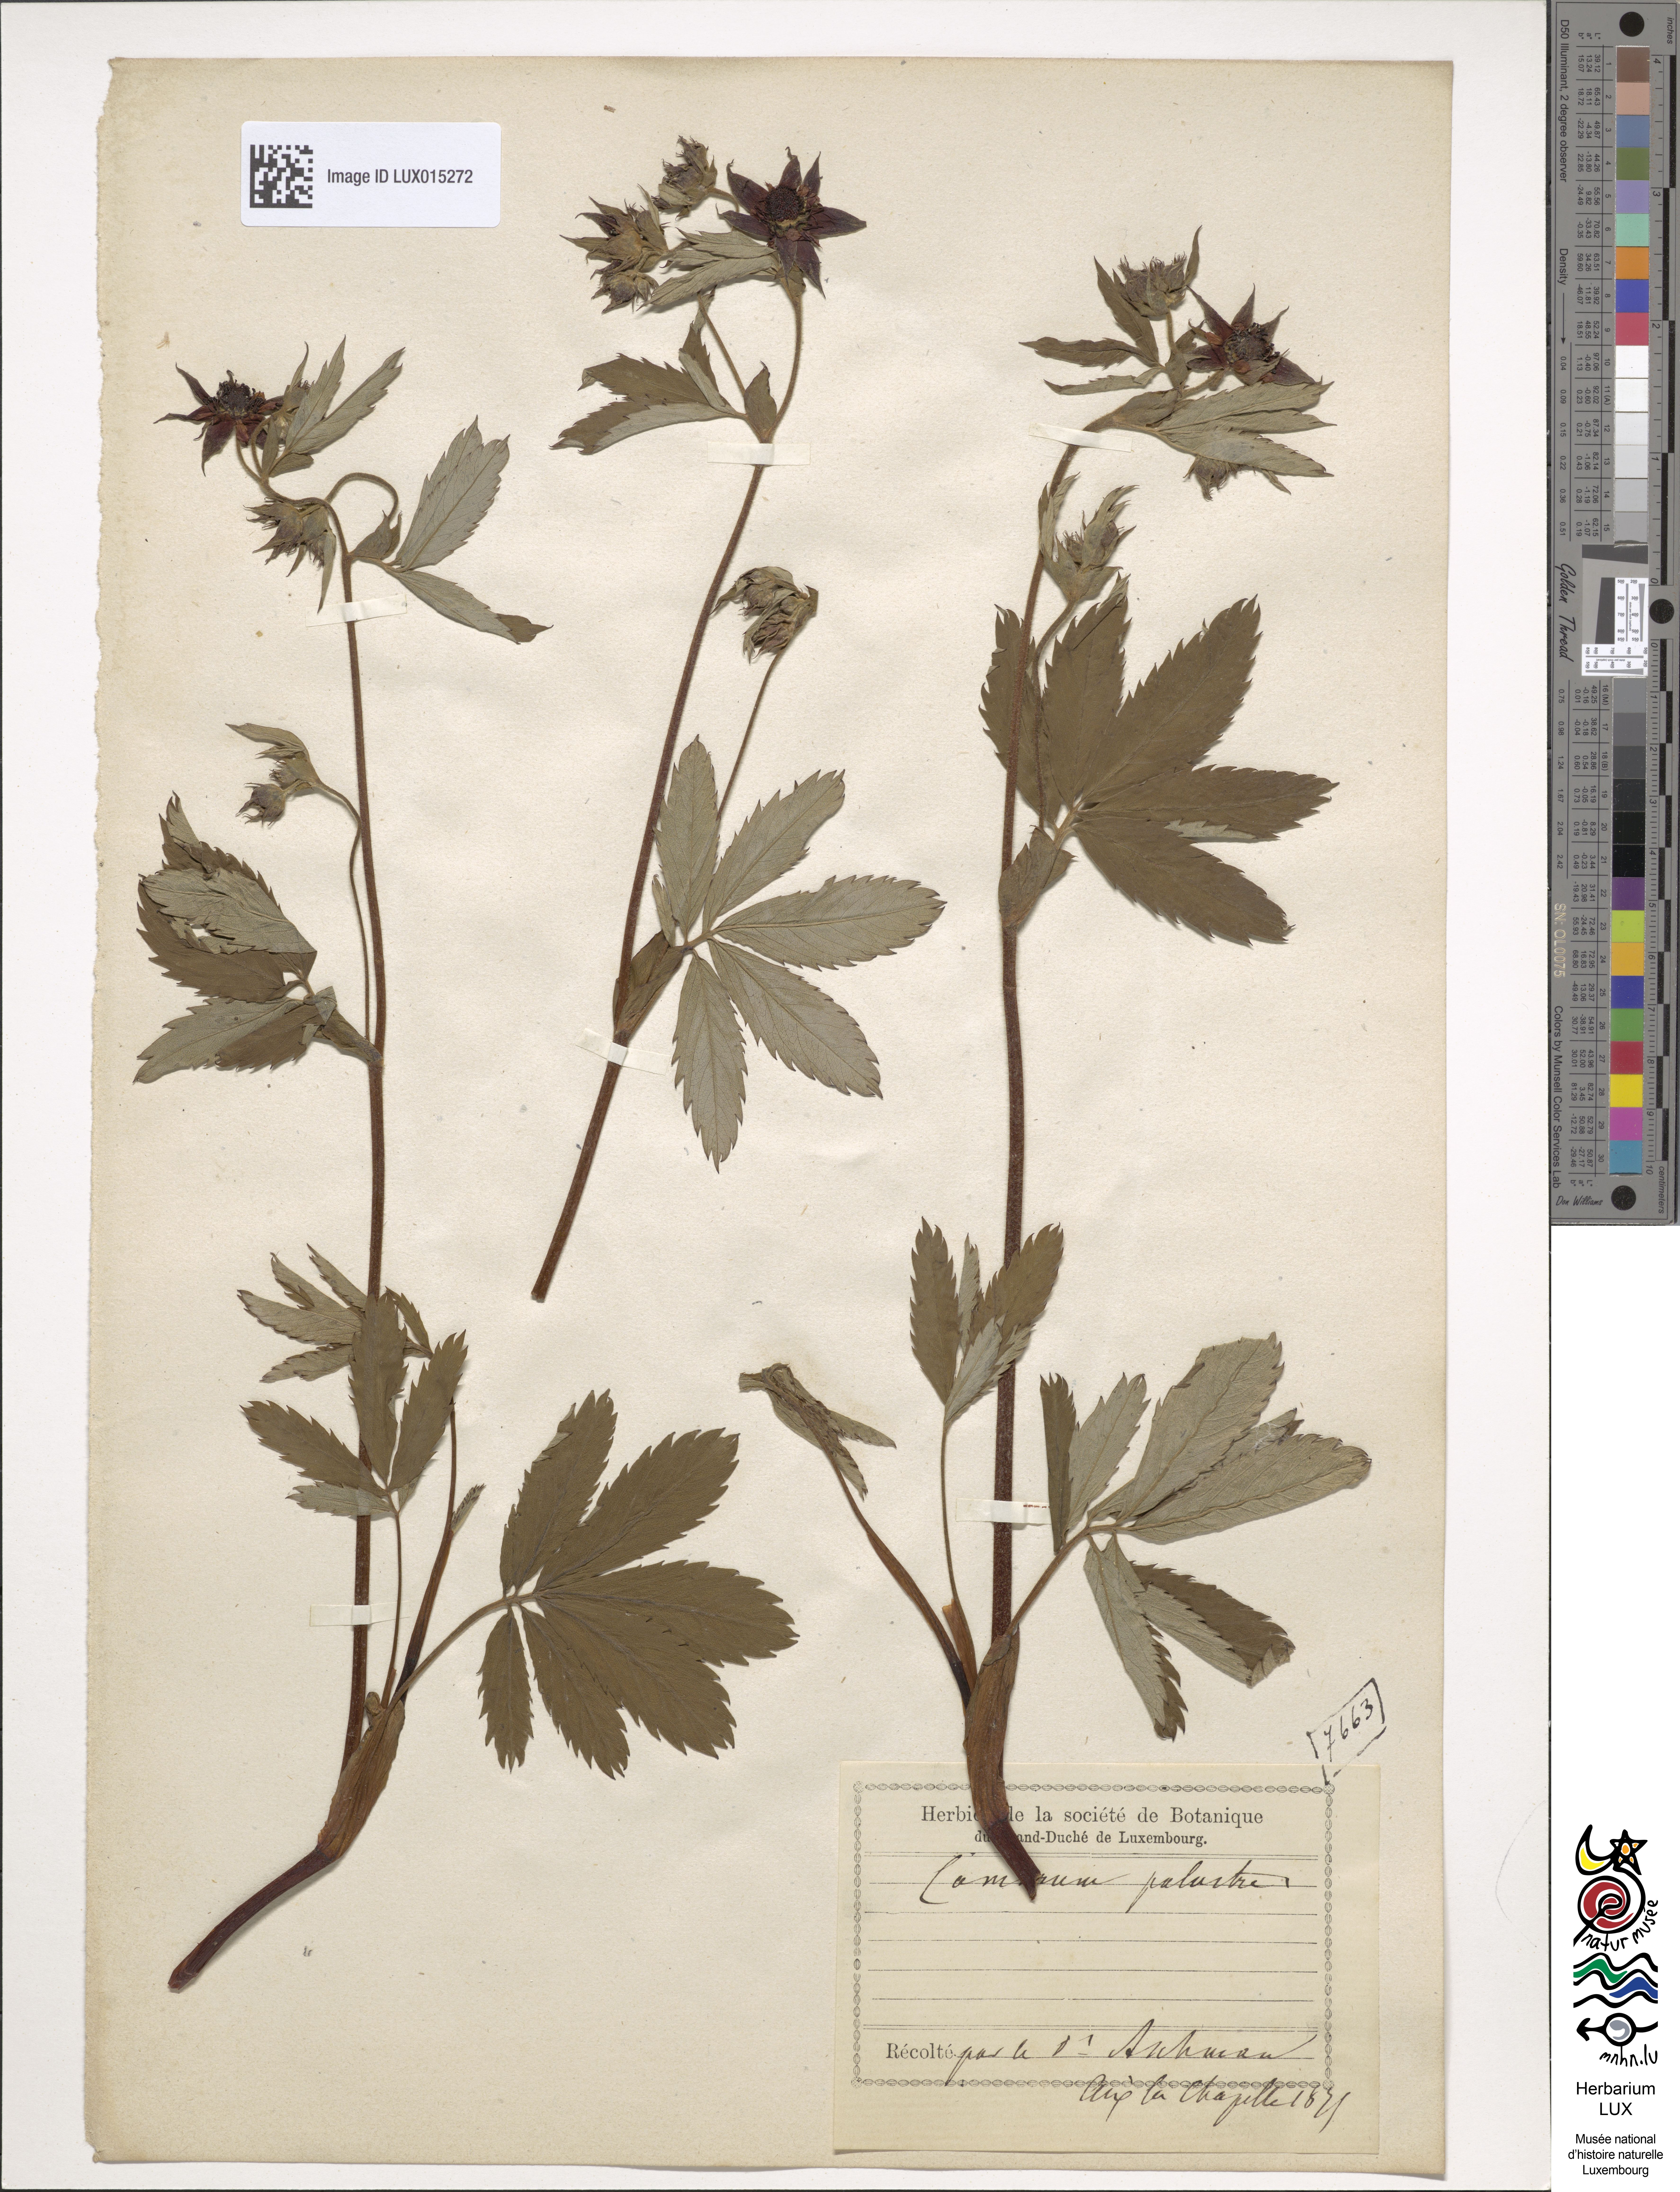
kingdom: Plantae
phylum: Tracheophyta
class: Magnoliopsida
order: Rosales
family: Rosaceae
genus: Comarum
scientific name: Comarum palustre
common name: Marsh cinquefoil
